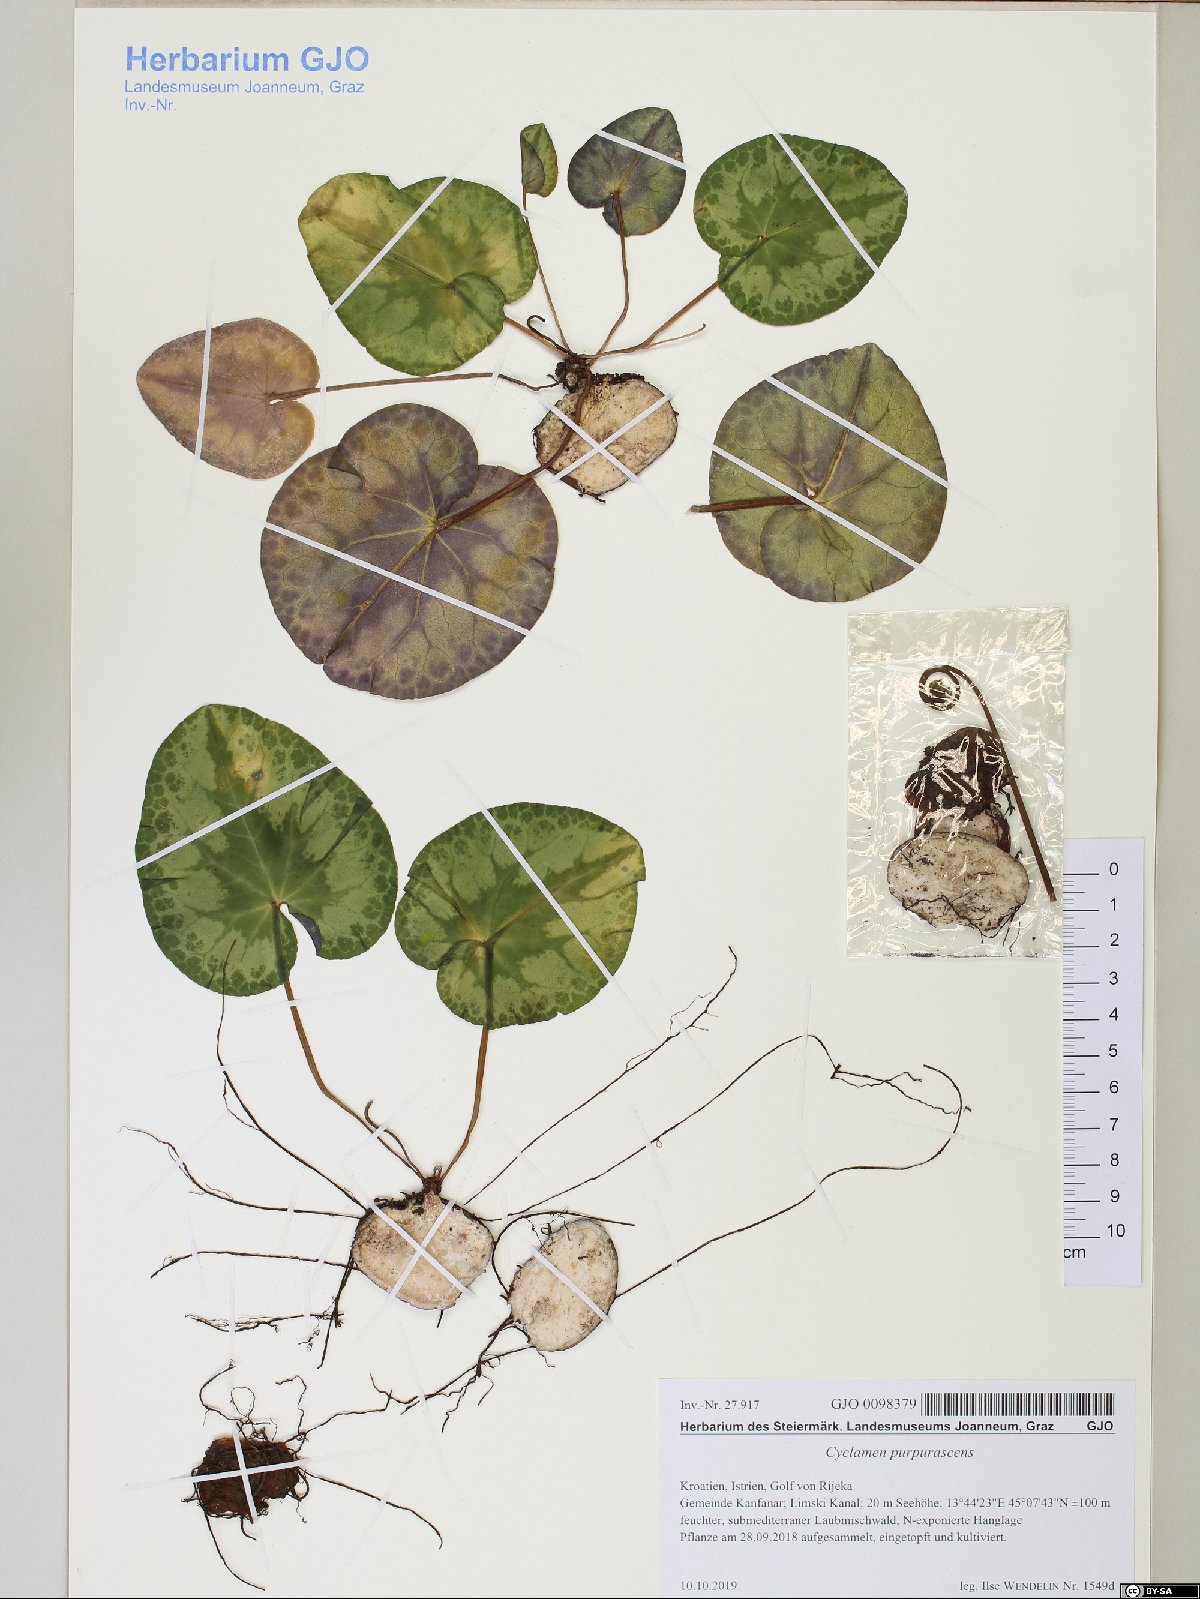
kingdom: Plantae
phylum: Tracheophyta
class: Magnoliopsida
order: Ericales
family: Primulaceae
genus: Cyclamen
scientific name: Cyclamen purpurascens
